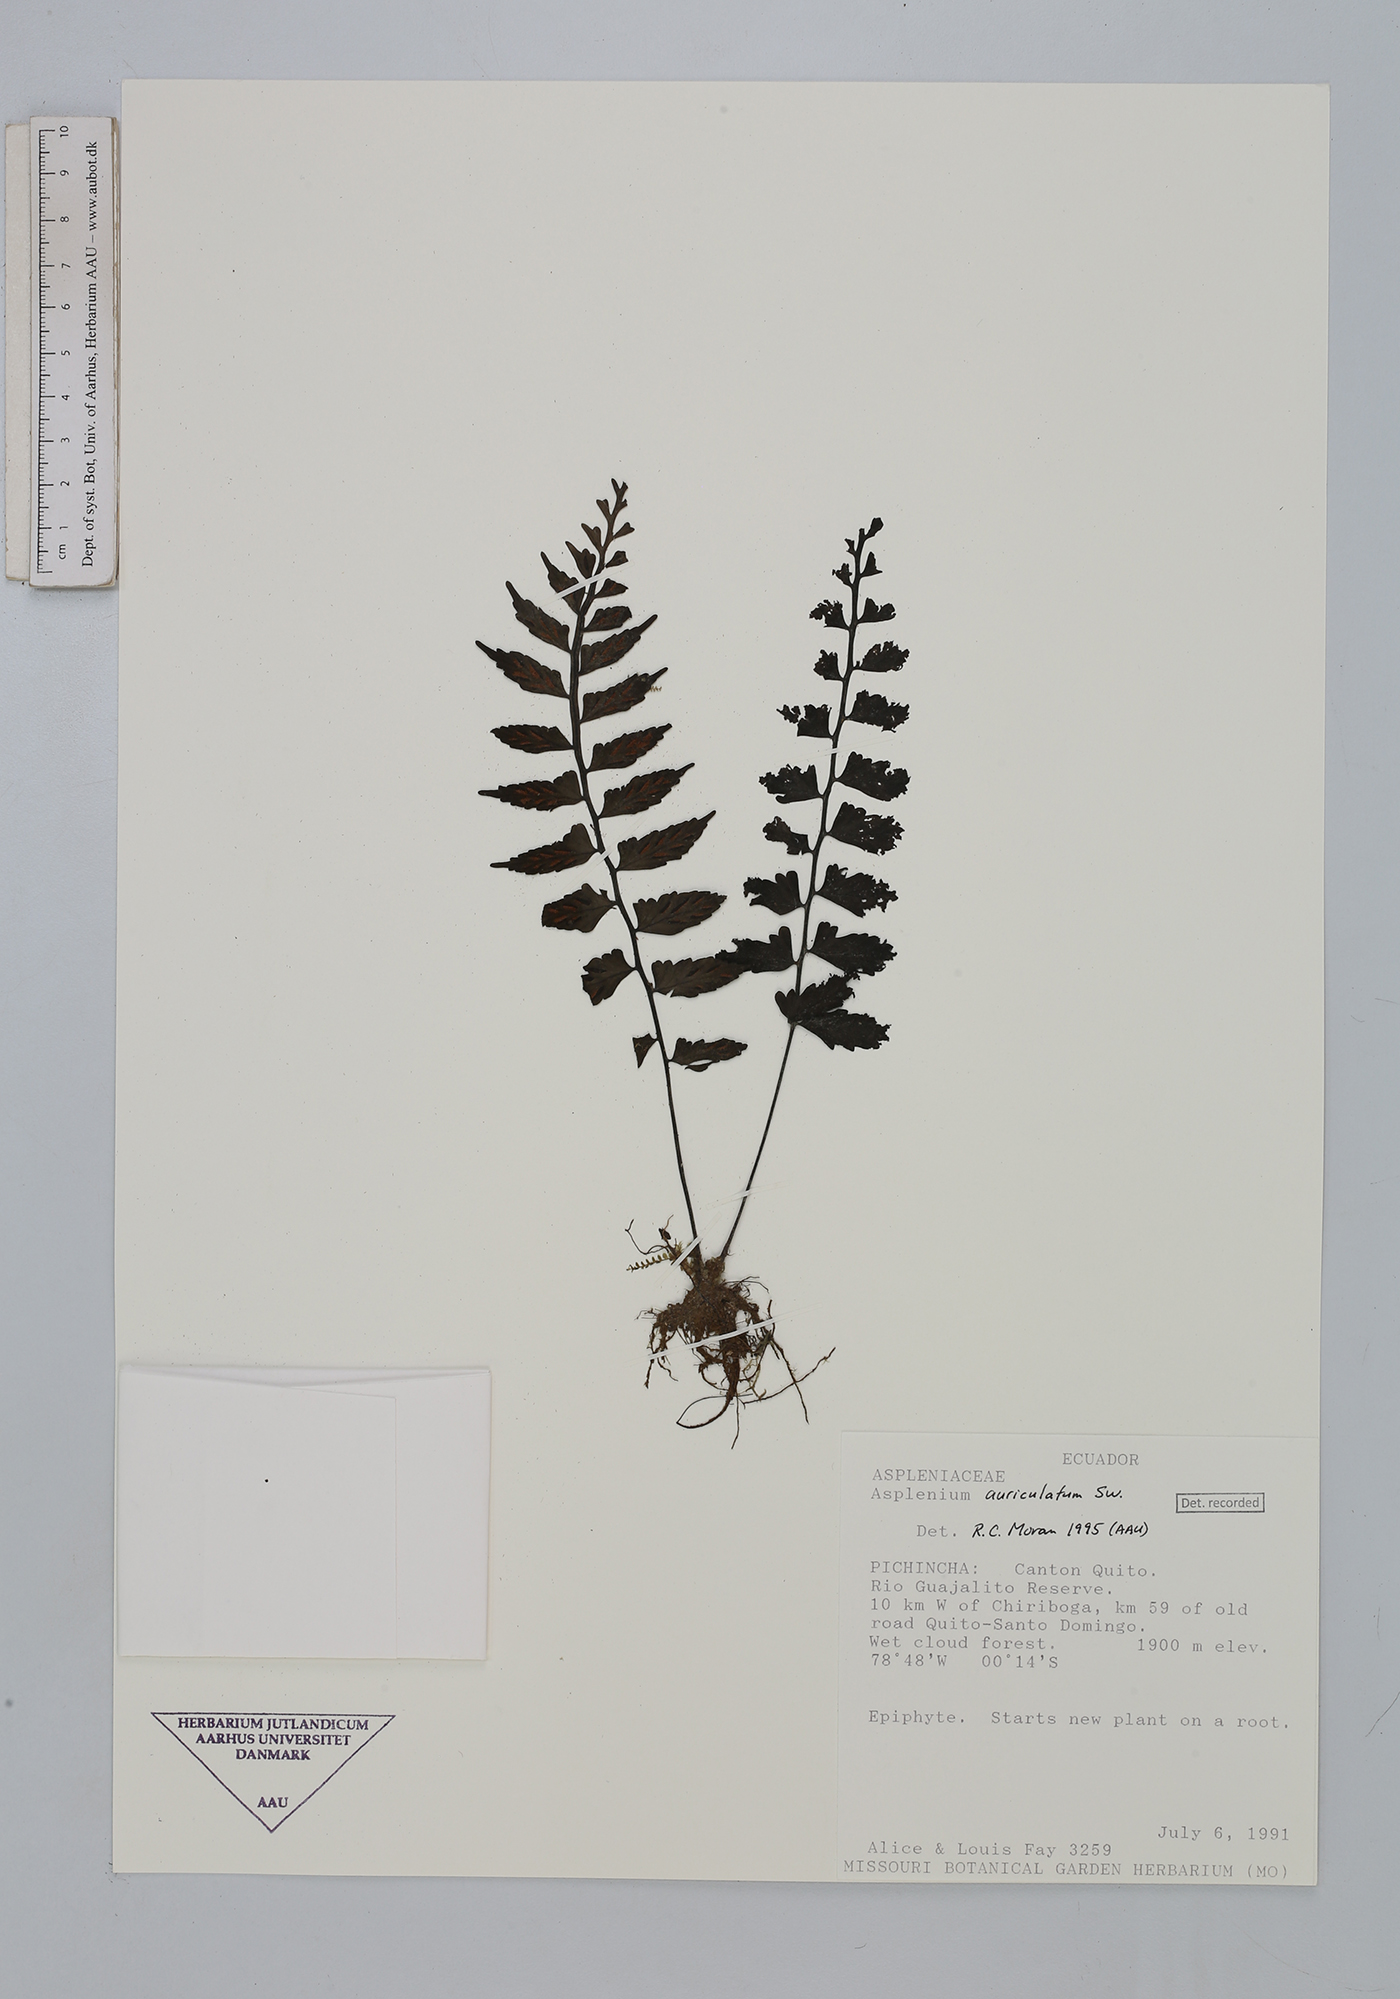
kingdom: Plantae
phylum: Tracheophyta
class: Polypodiopsida
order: Polypodiales
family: Aspleniaceae
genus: Asplenium
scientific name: Asplenium auriculatum
